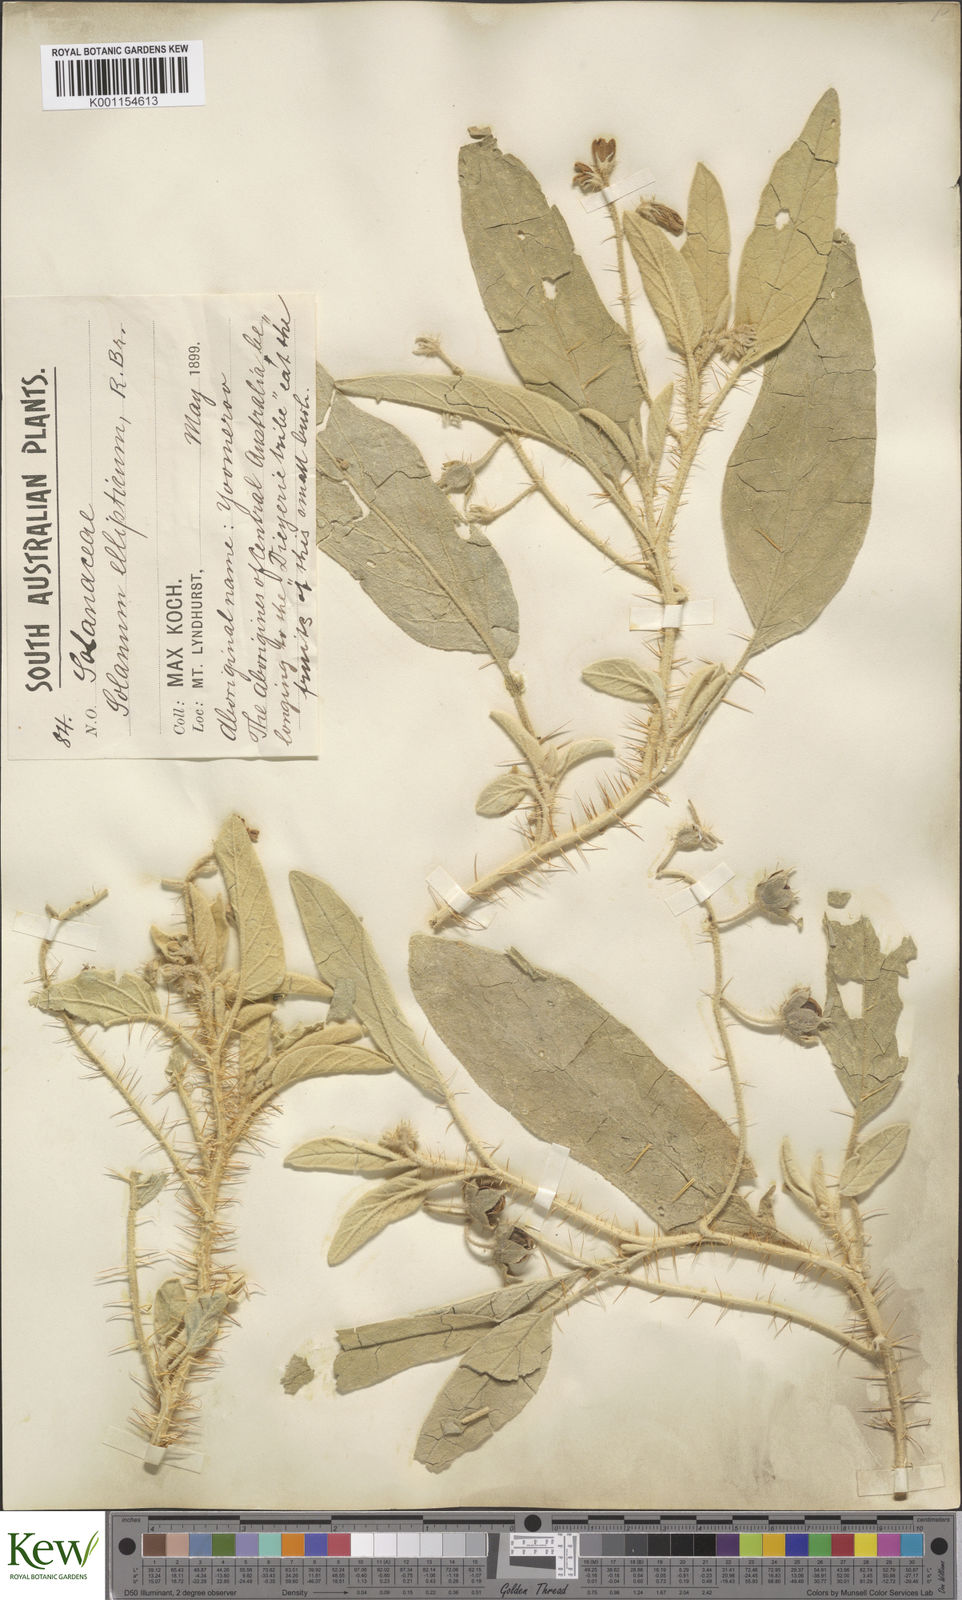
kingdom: Plantae
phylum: Tracheophyta
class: Magnoliopsida
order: Solanales
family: Solanaceae
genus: Solanum
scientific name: Solanum ellipticum
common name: Potato-bush
